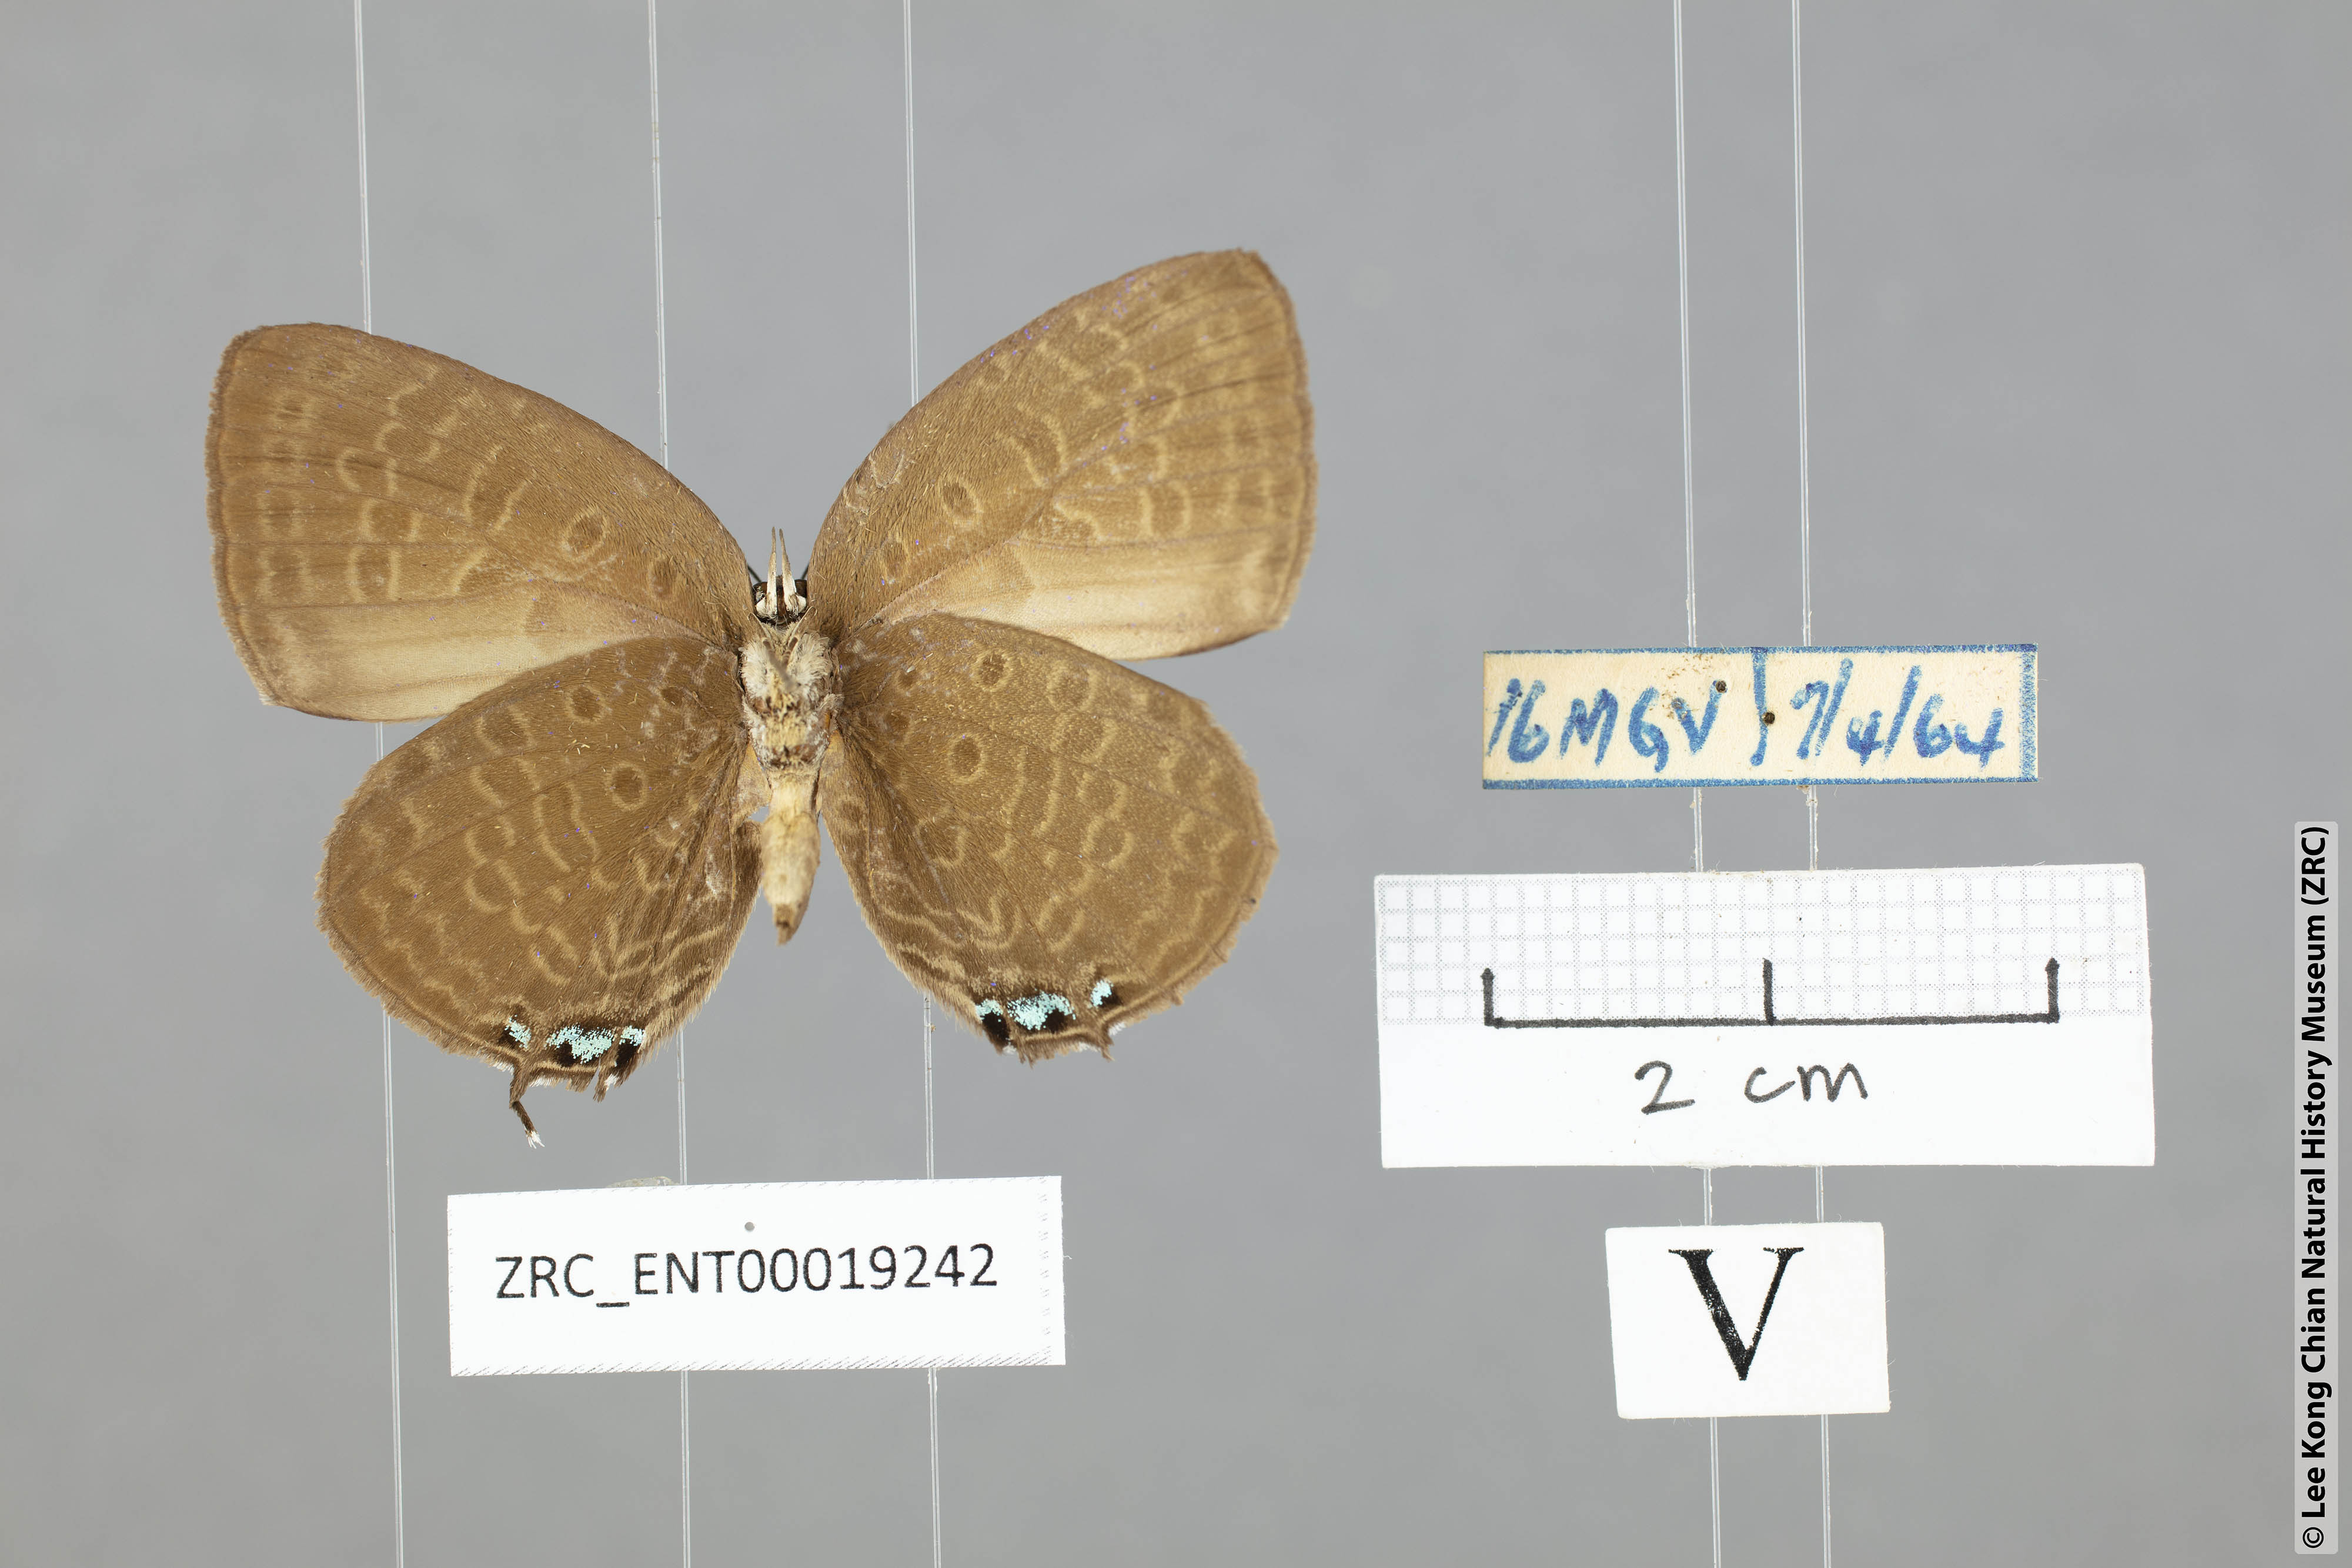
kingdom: Animalia
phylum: Arthropoda
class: Insecta
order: Lepidoptera
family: Lycaenidae
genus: Arhopala
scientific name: Arhopala atosia
